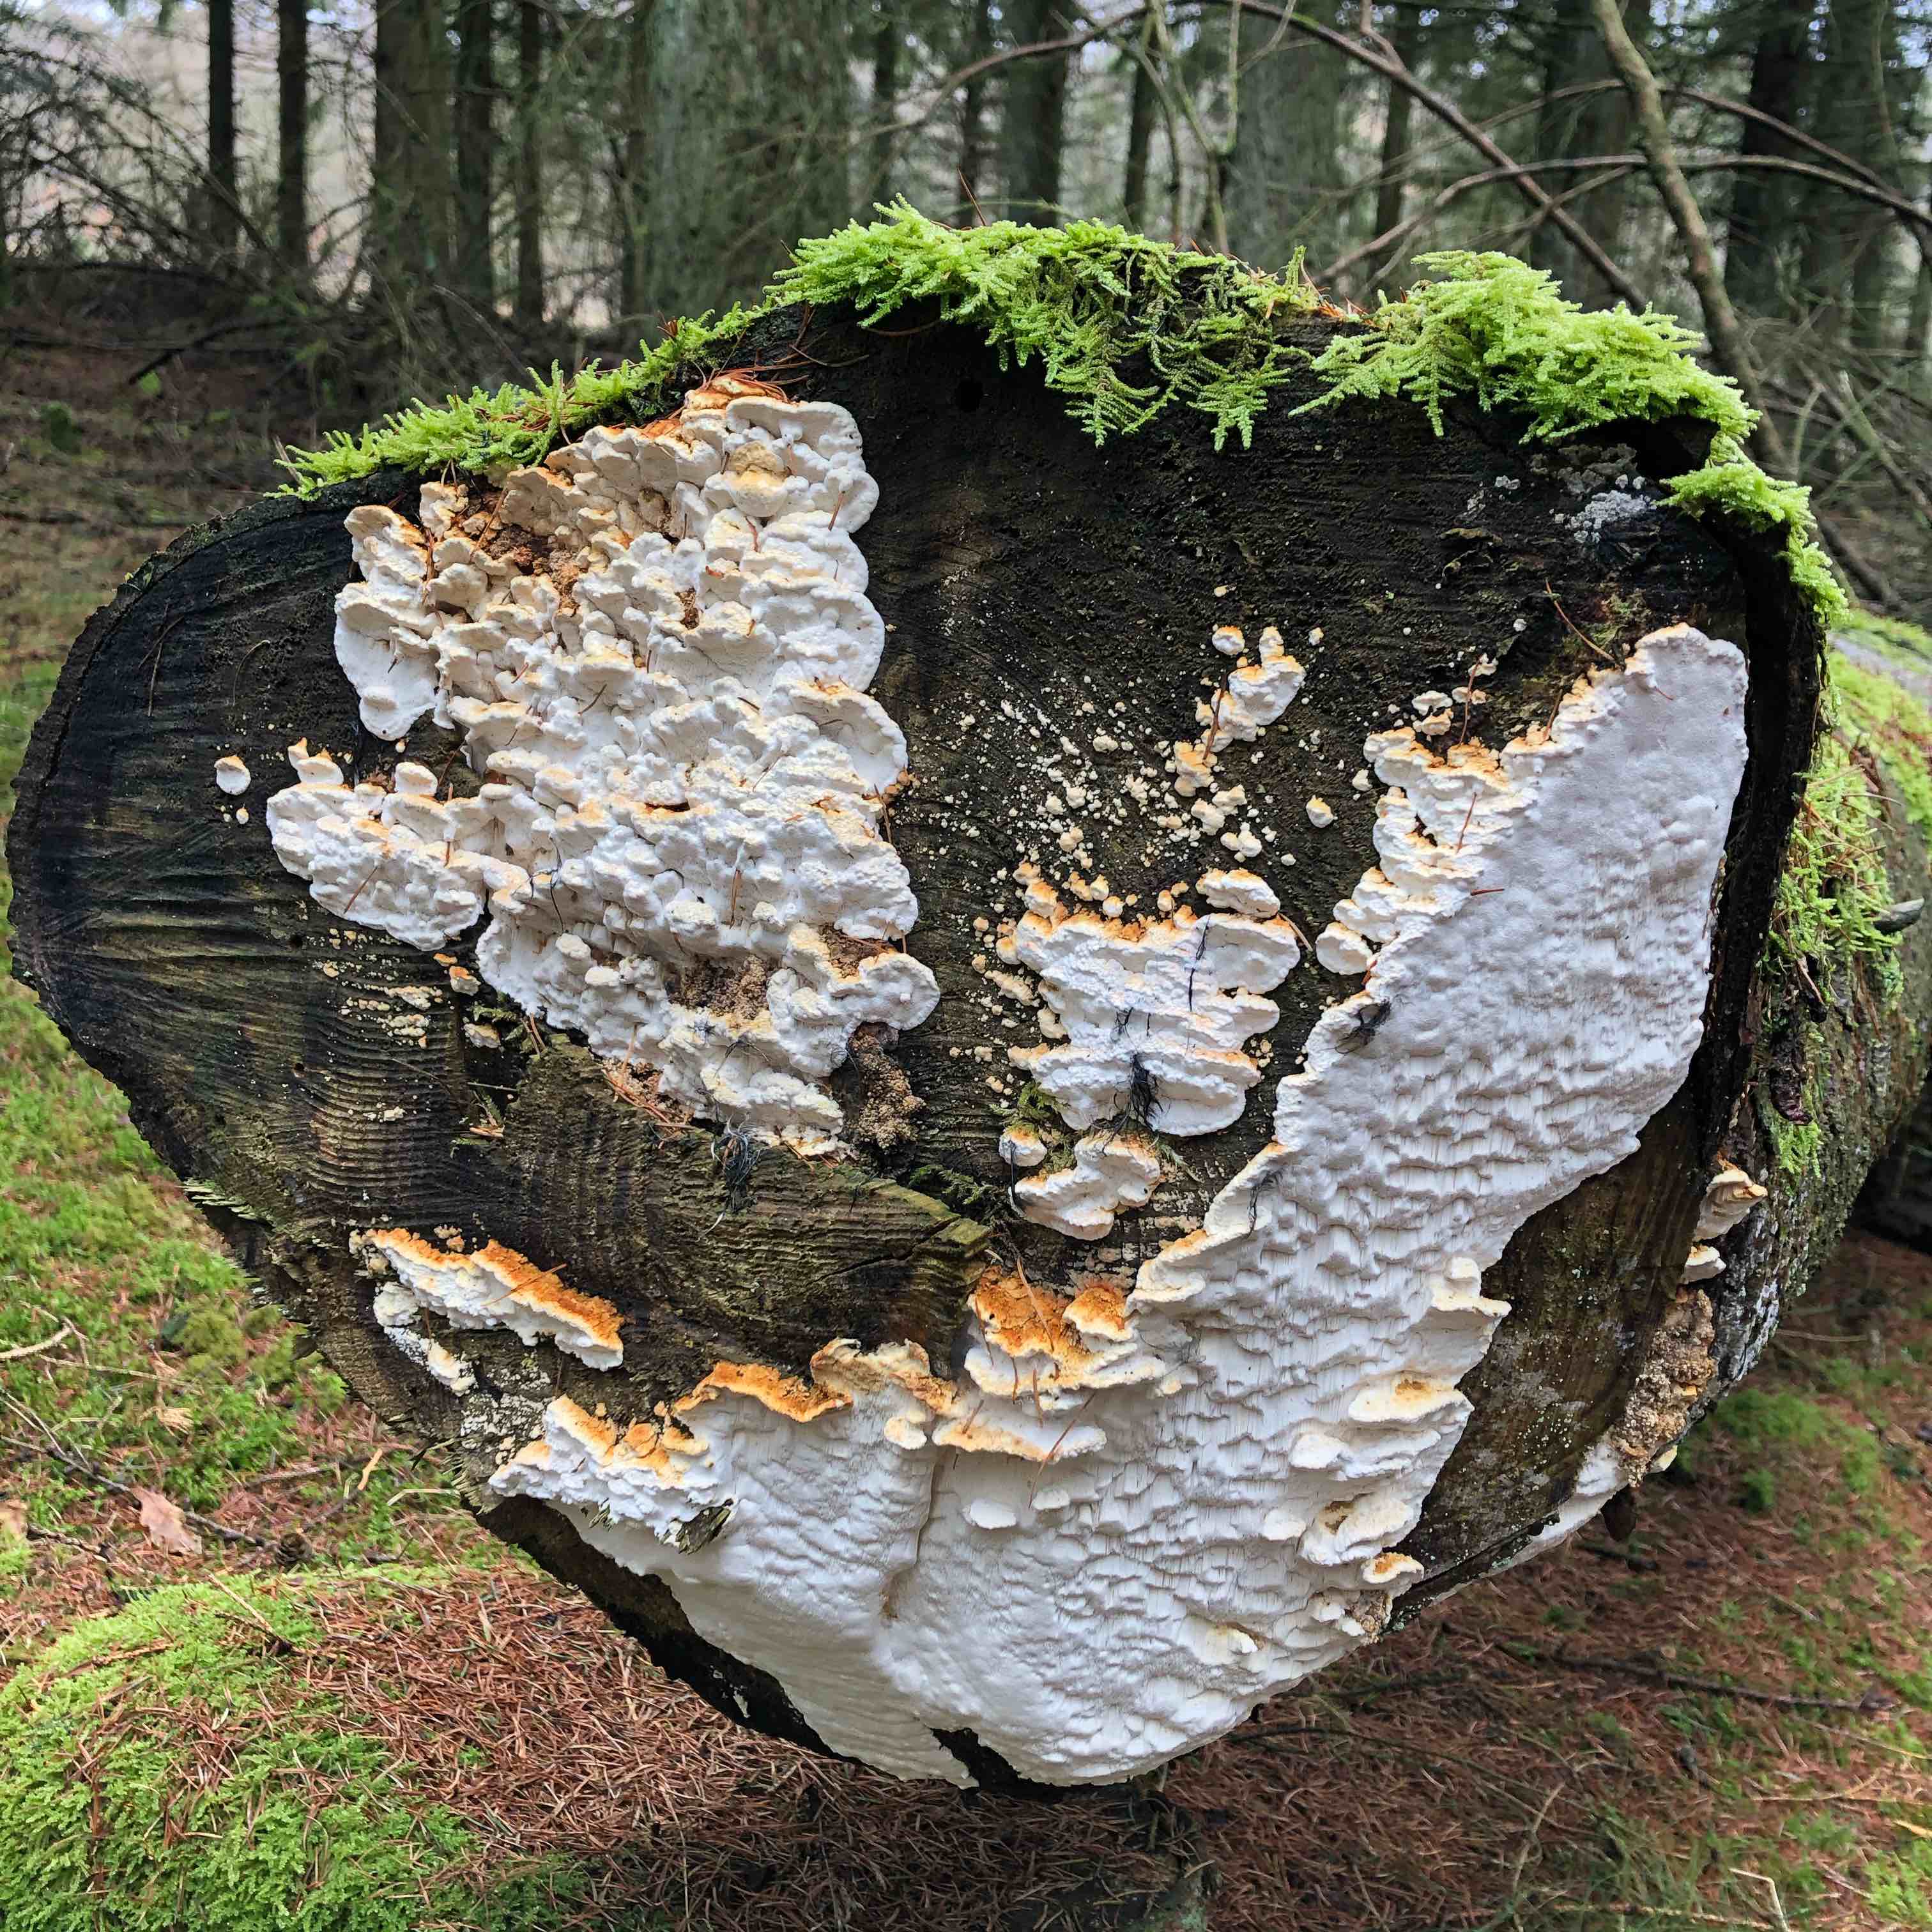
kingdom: Fungi
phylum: Basidiomycota
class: Agaricomycetes
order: Polyporales
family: Fomitopsidaceae
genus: Neoantrodia
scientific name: Neoantrodia serialis
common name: række-sejporesvamp
